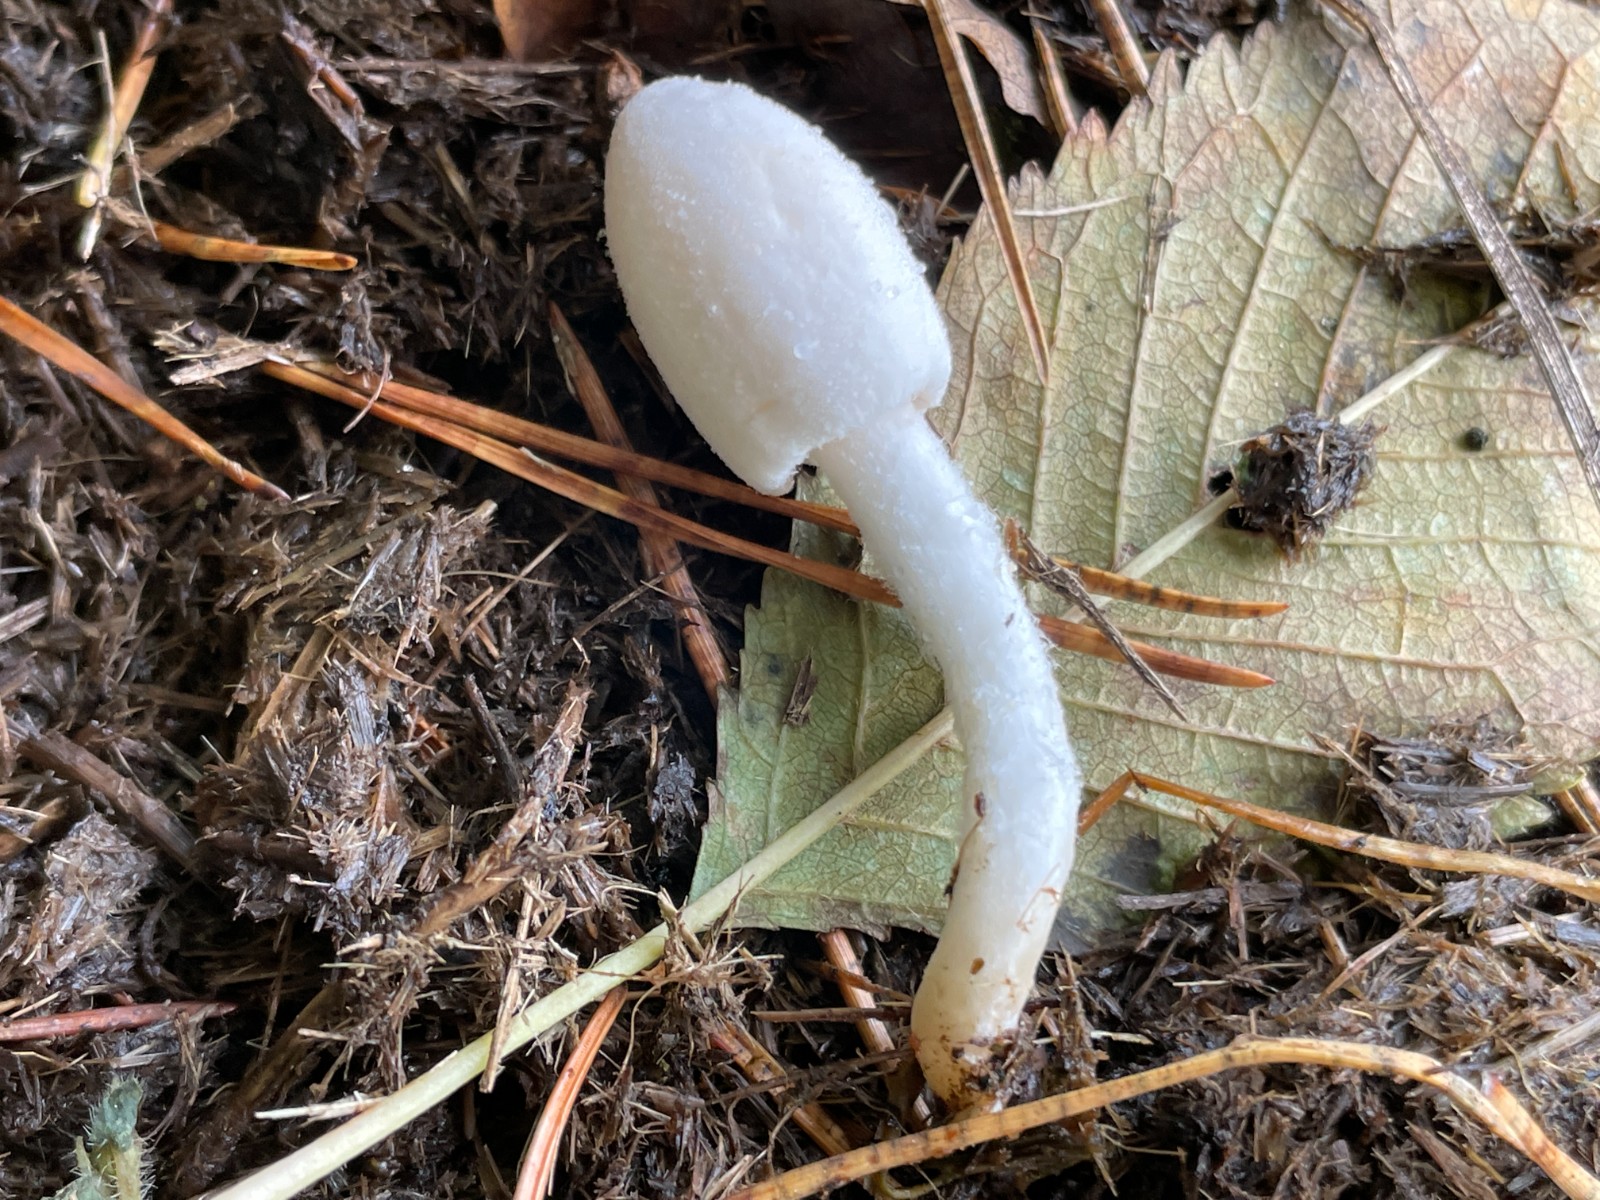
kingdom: Fungi
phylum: Basidiomycota
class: Agaricomycetes
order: Agaricales
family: Psathyrellaceae
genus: Coprinopsis
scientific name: Coprinopsis nivea
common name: snehvid blækhat
